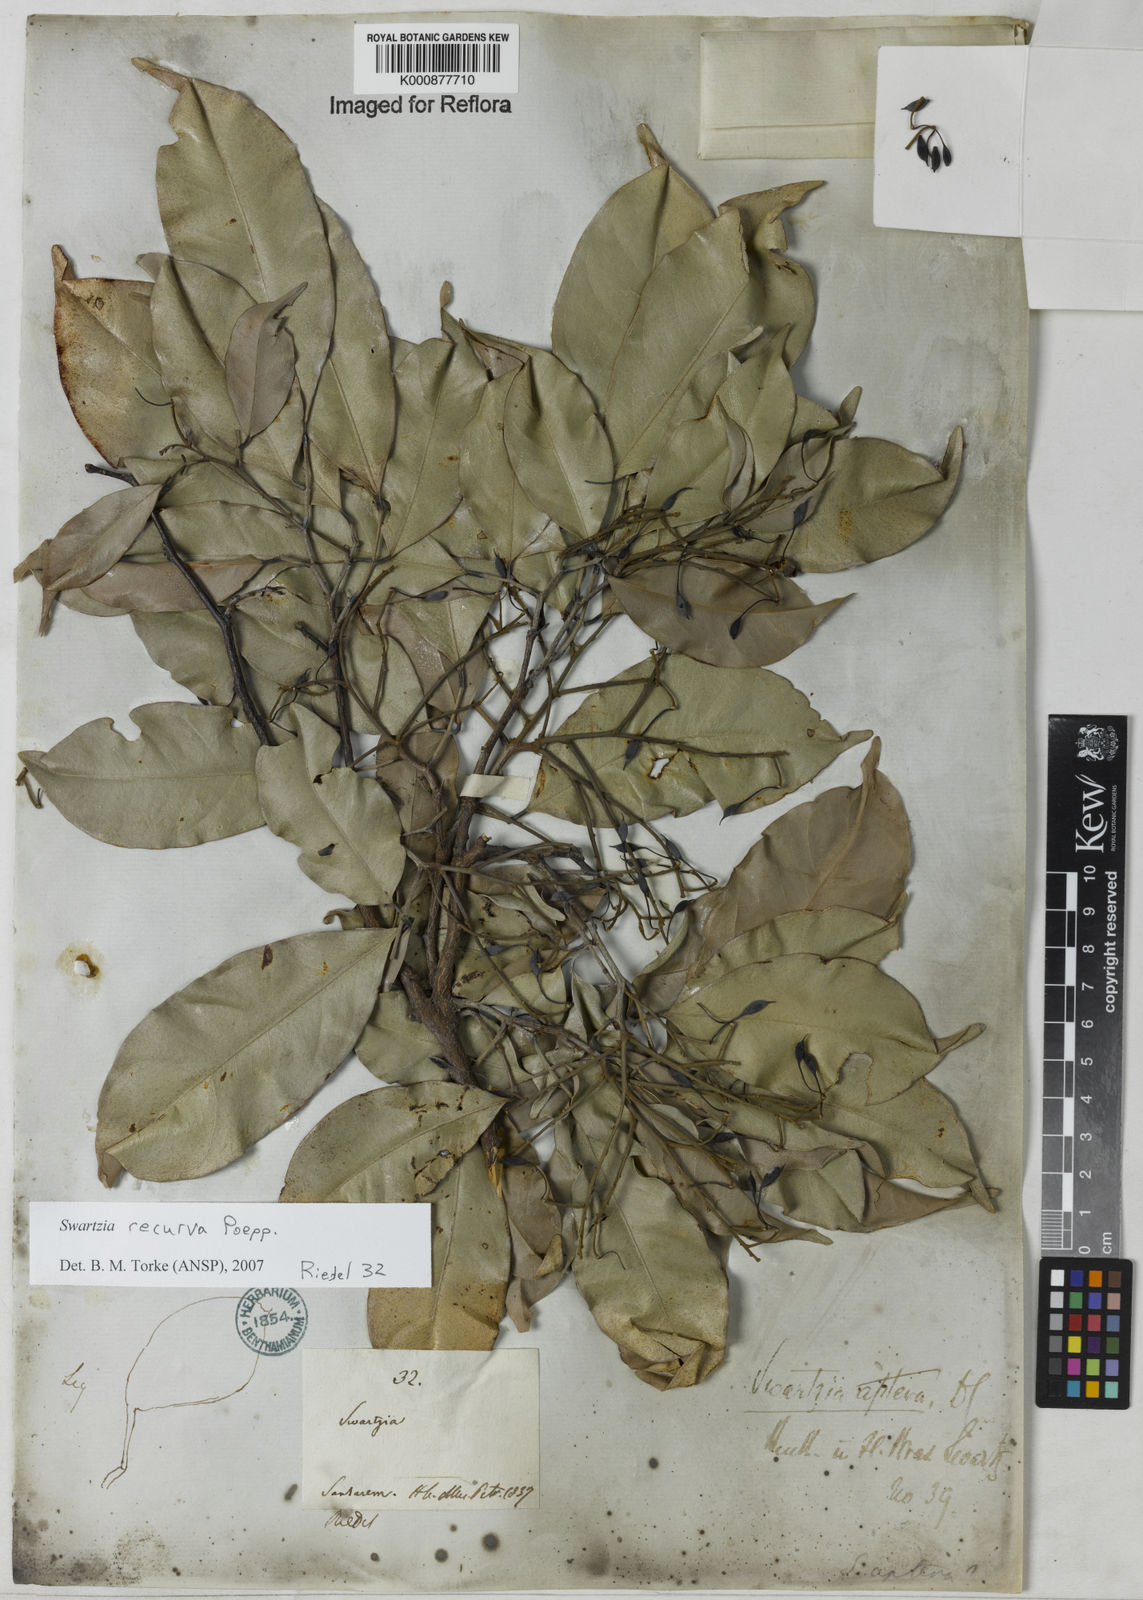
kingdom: Plantae
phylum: Tracheophyta
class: Magnoliopsida
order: Fabales
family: Fabaceae
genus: Swartzia
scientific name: Swartzia recurva
